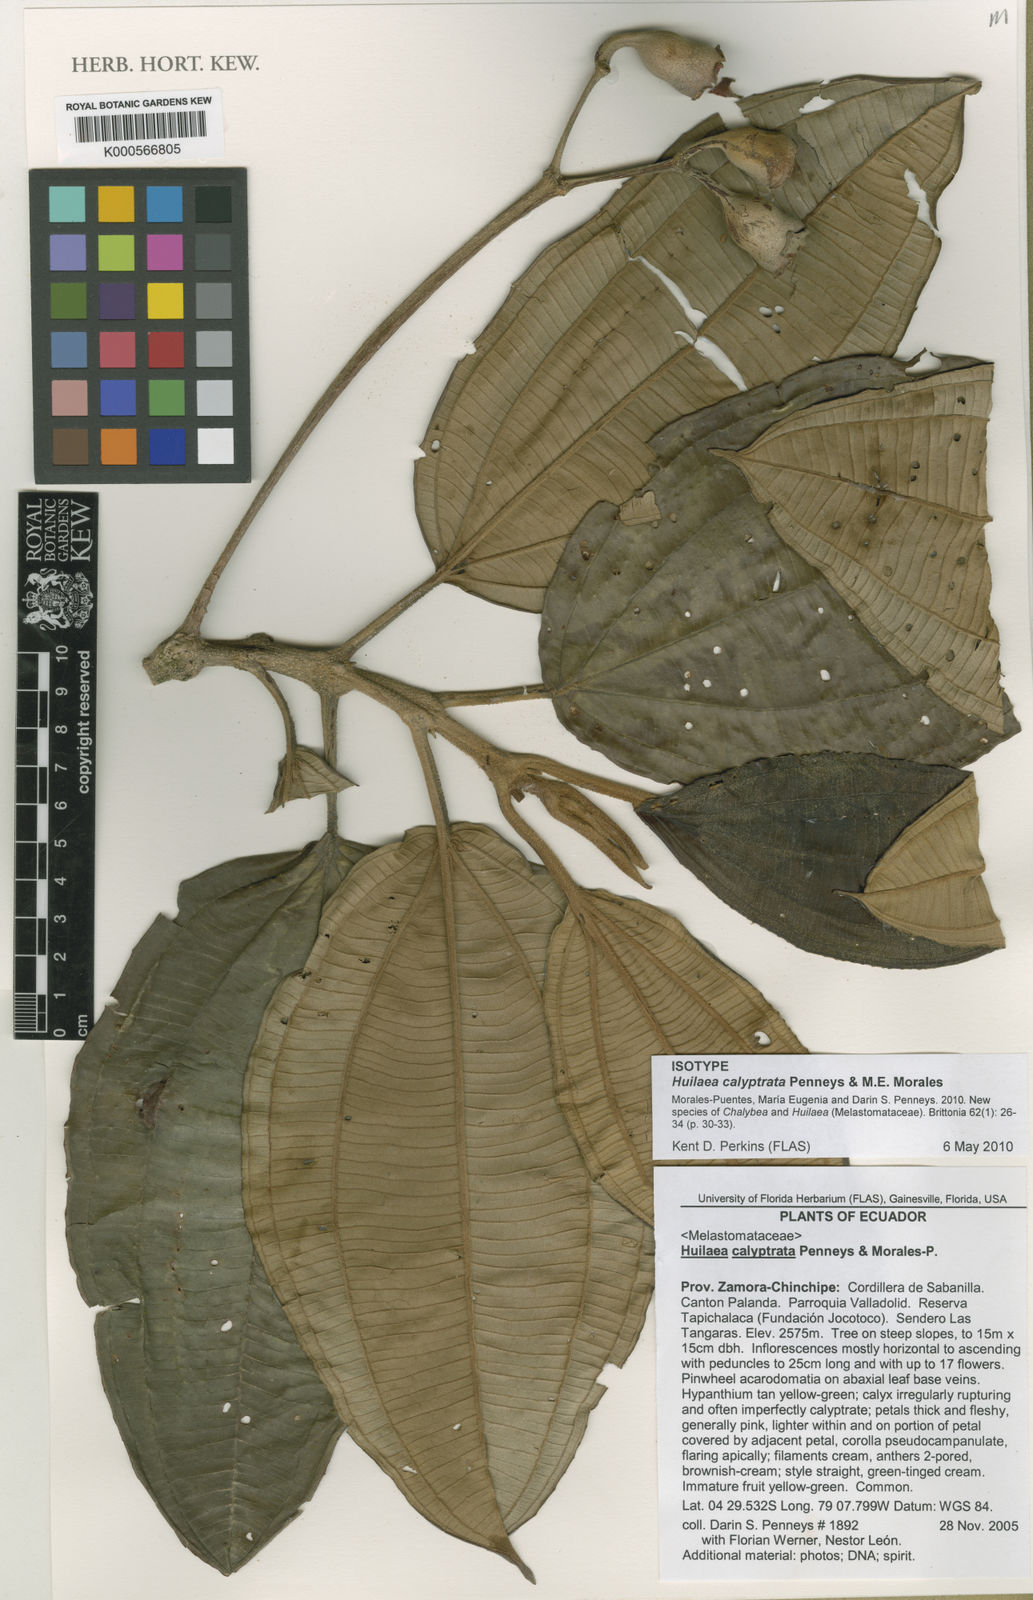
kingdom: Plantae
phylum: Tracheophyta
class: Magnoliopsida
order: Myrtales
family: Melastomataceae
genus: Chalybea
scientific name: Chalybea calyptrata
